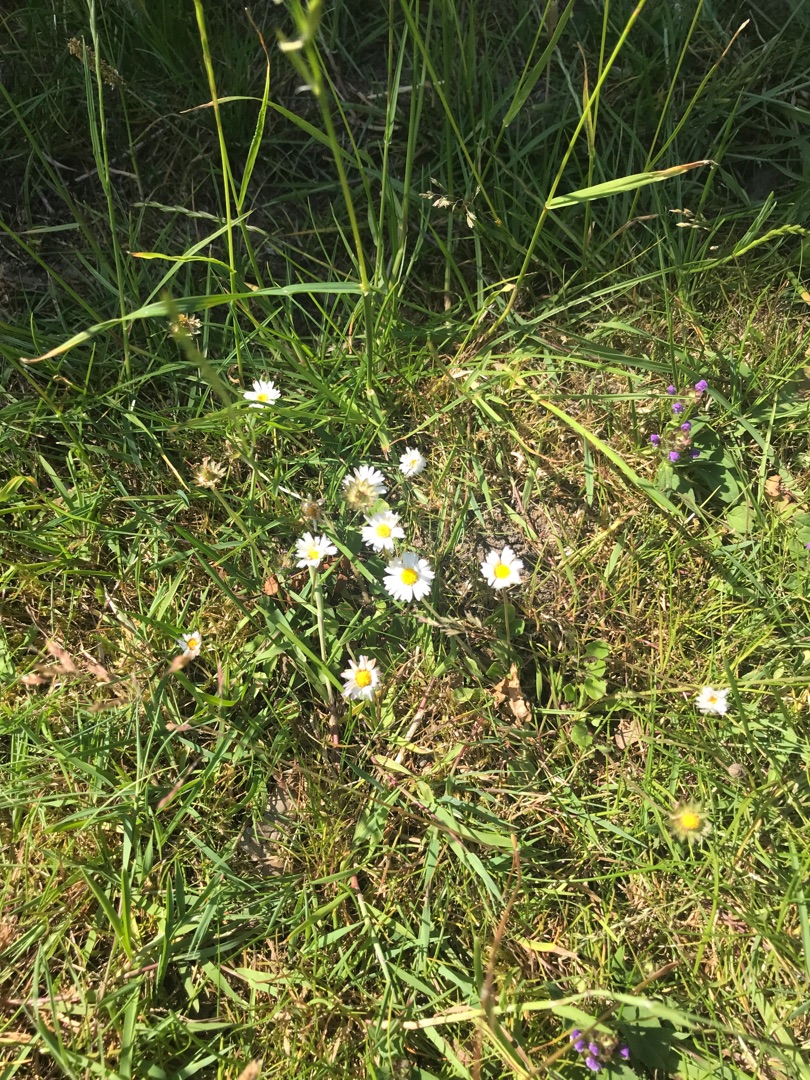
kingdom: Plantae
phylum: Tracheophyta
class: Magnoliopsida
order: Asterales
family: Asteraceae
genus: Bellis
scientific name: Bellis perennis
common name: Tusindfryd
